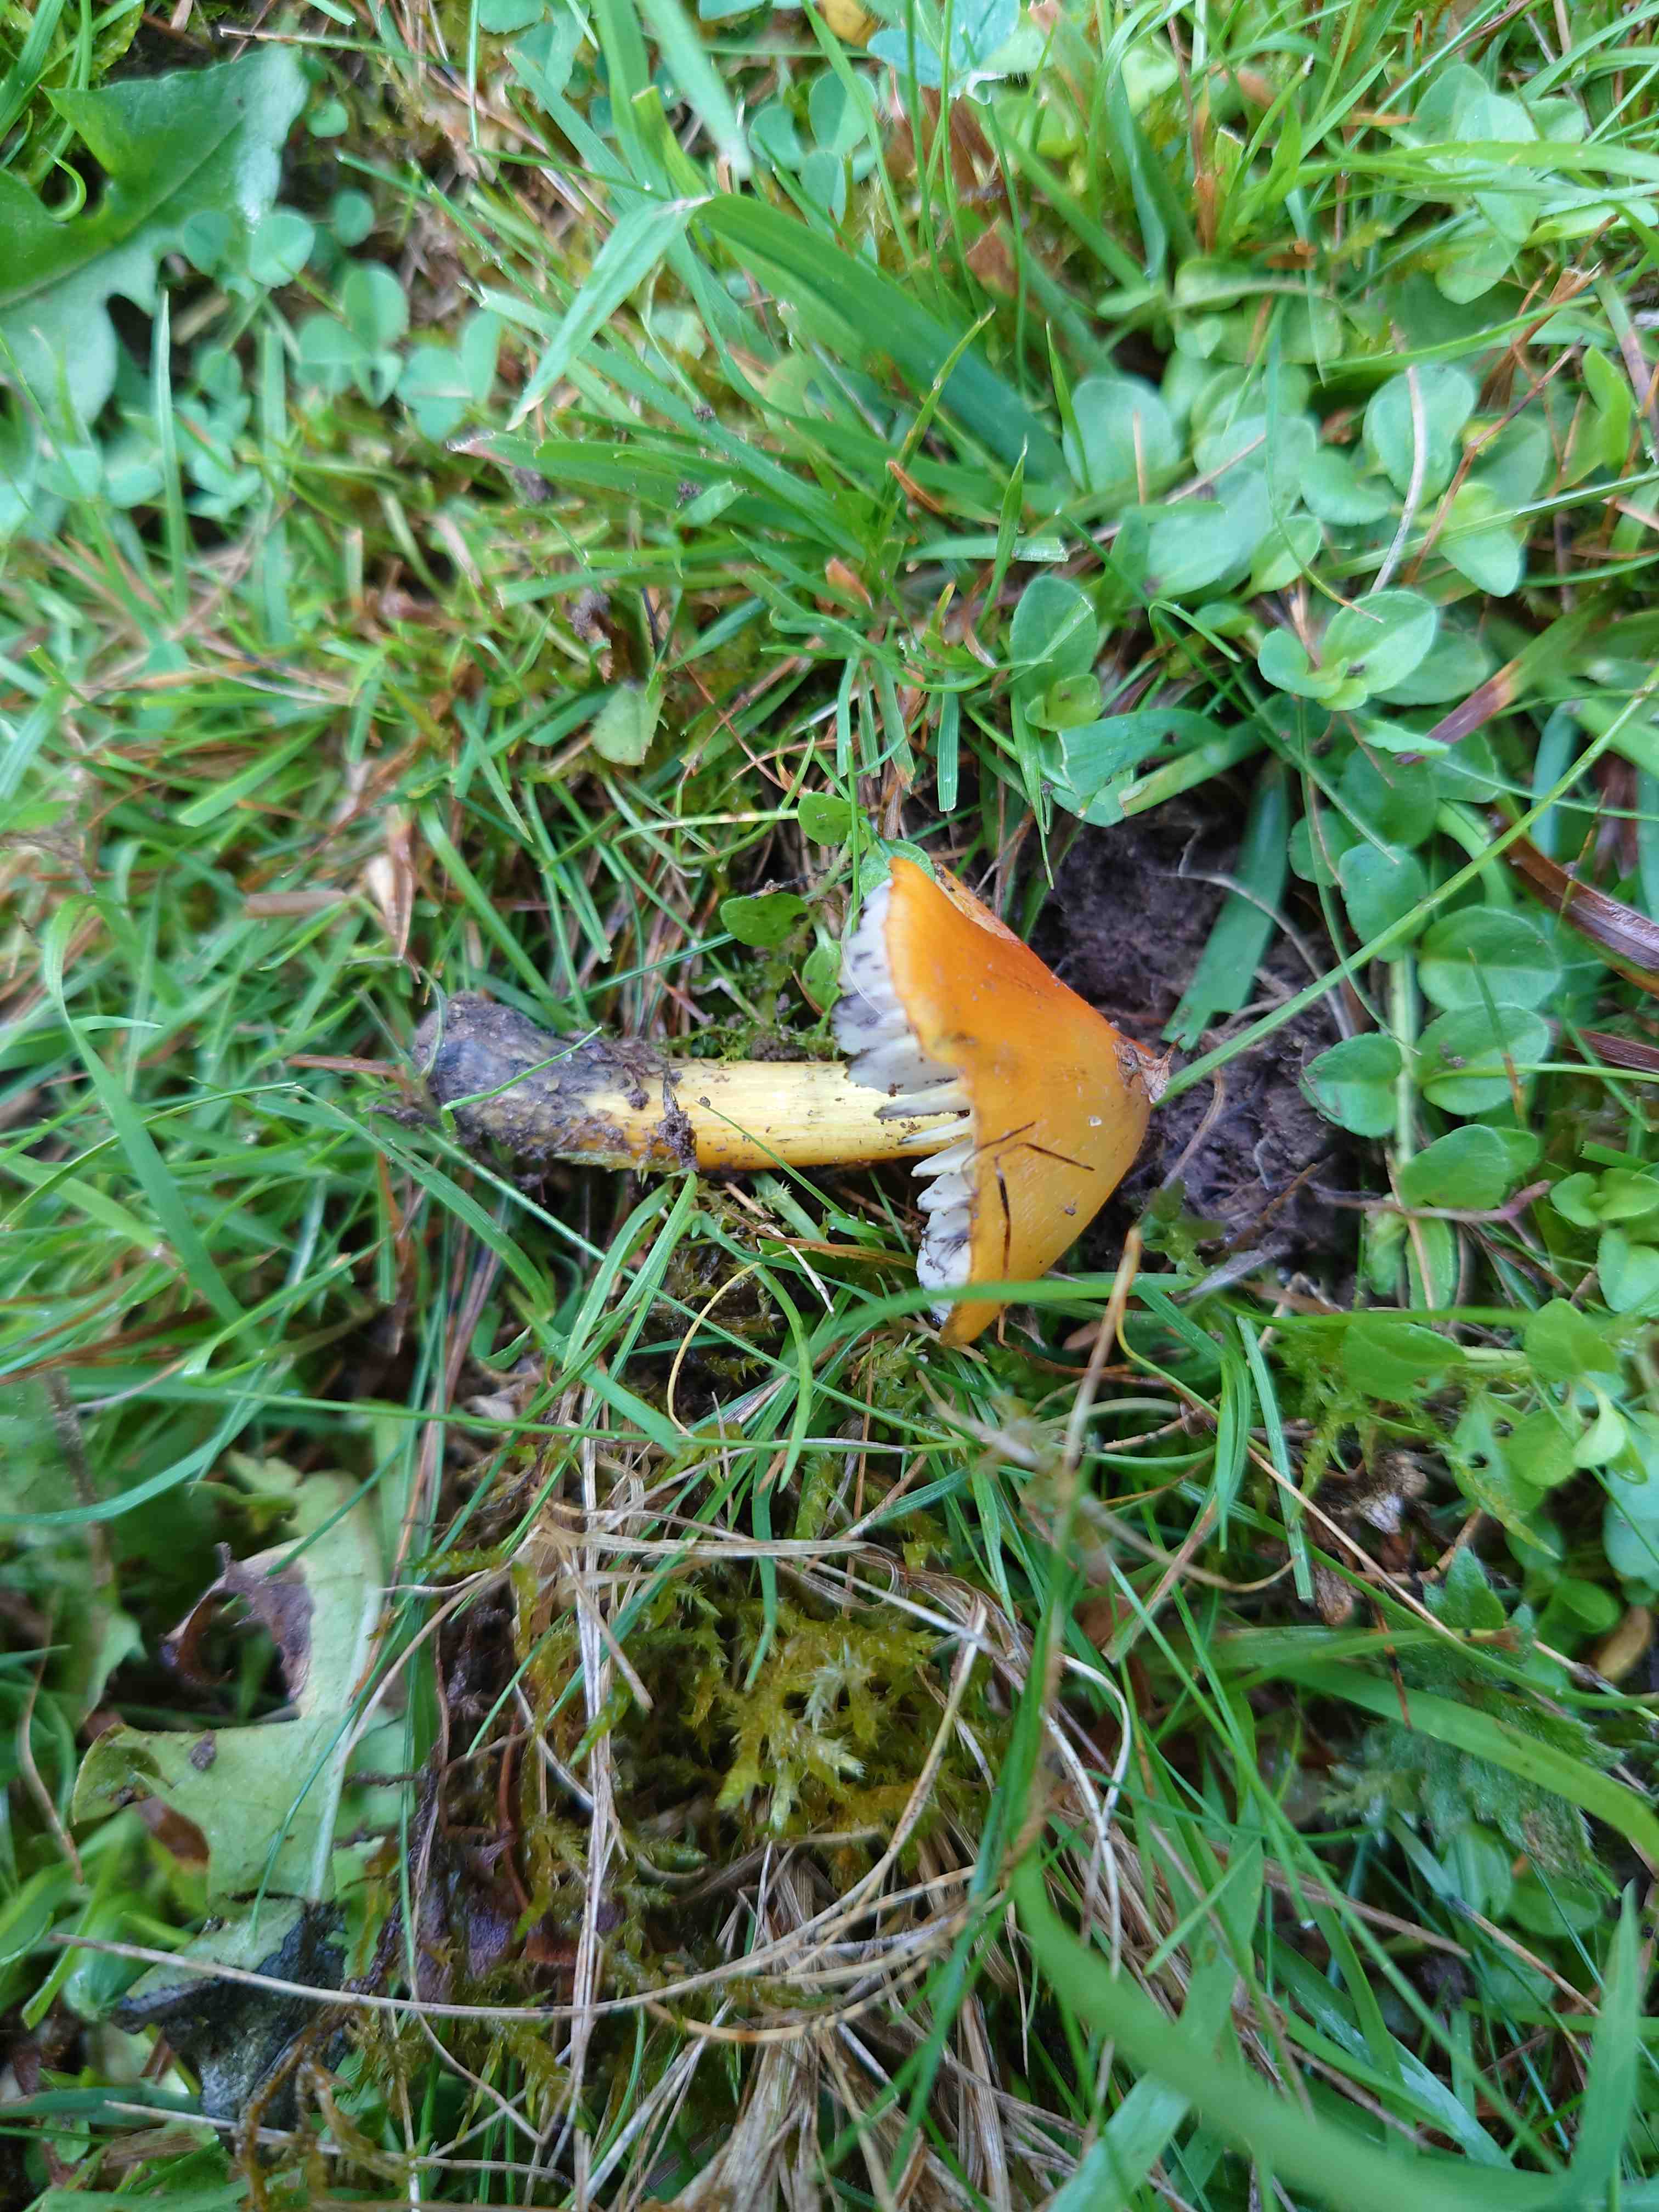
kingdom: Fungi
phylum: Basidiomycota
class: Agaricomycetes
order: Agaricales
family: Hygrophoraceae
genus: Hygrocybe
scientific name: Hygrocybe conica
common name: kegle-vokshat
